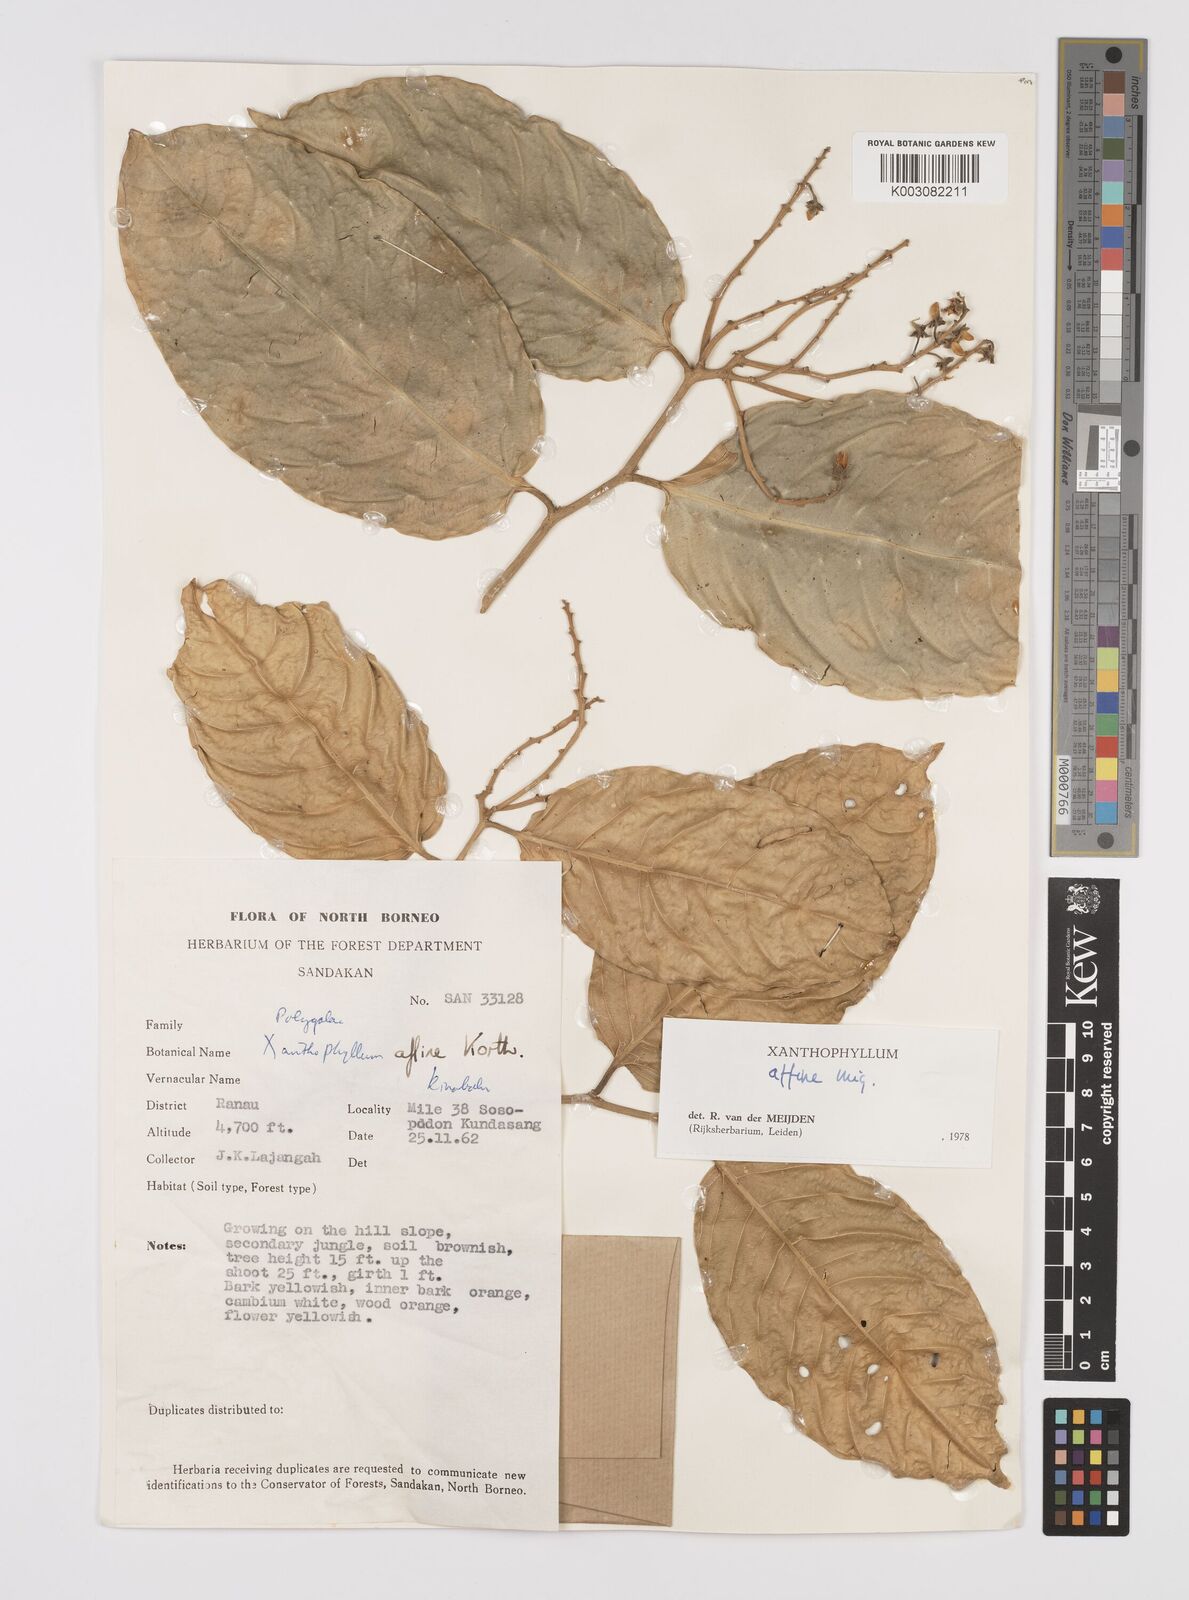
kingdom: Plantae
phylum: Tracheophyta
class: Magnoliopsida
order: Fabales
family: Polygalaceae
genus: Xanthophyllum
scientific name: Xanthophyllum flavescens
